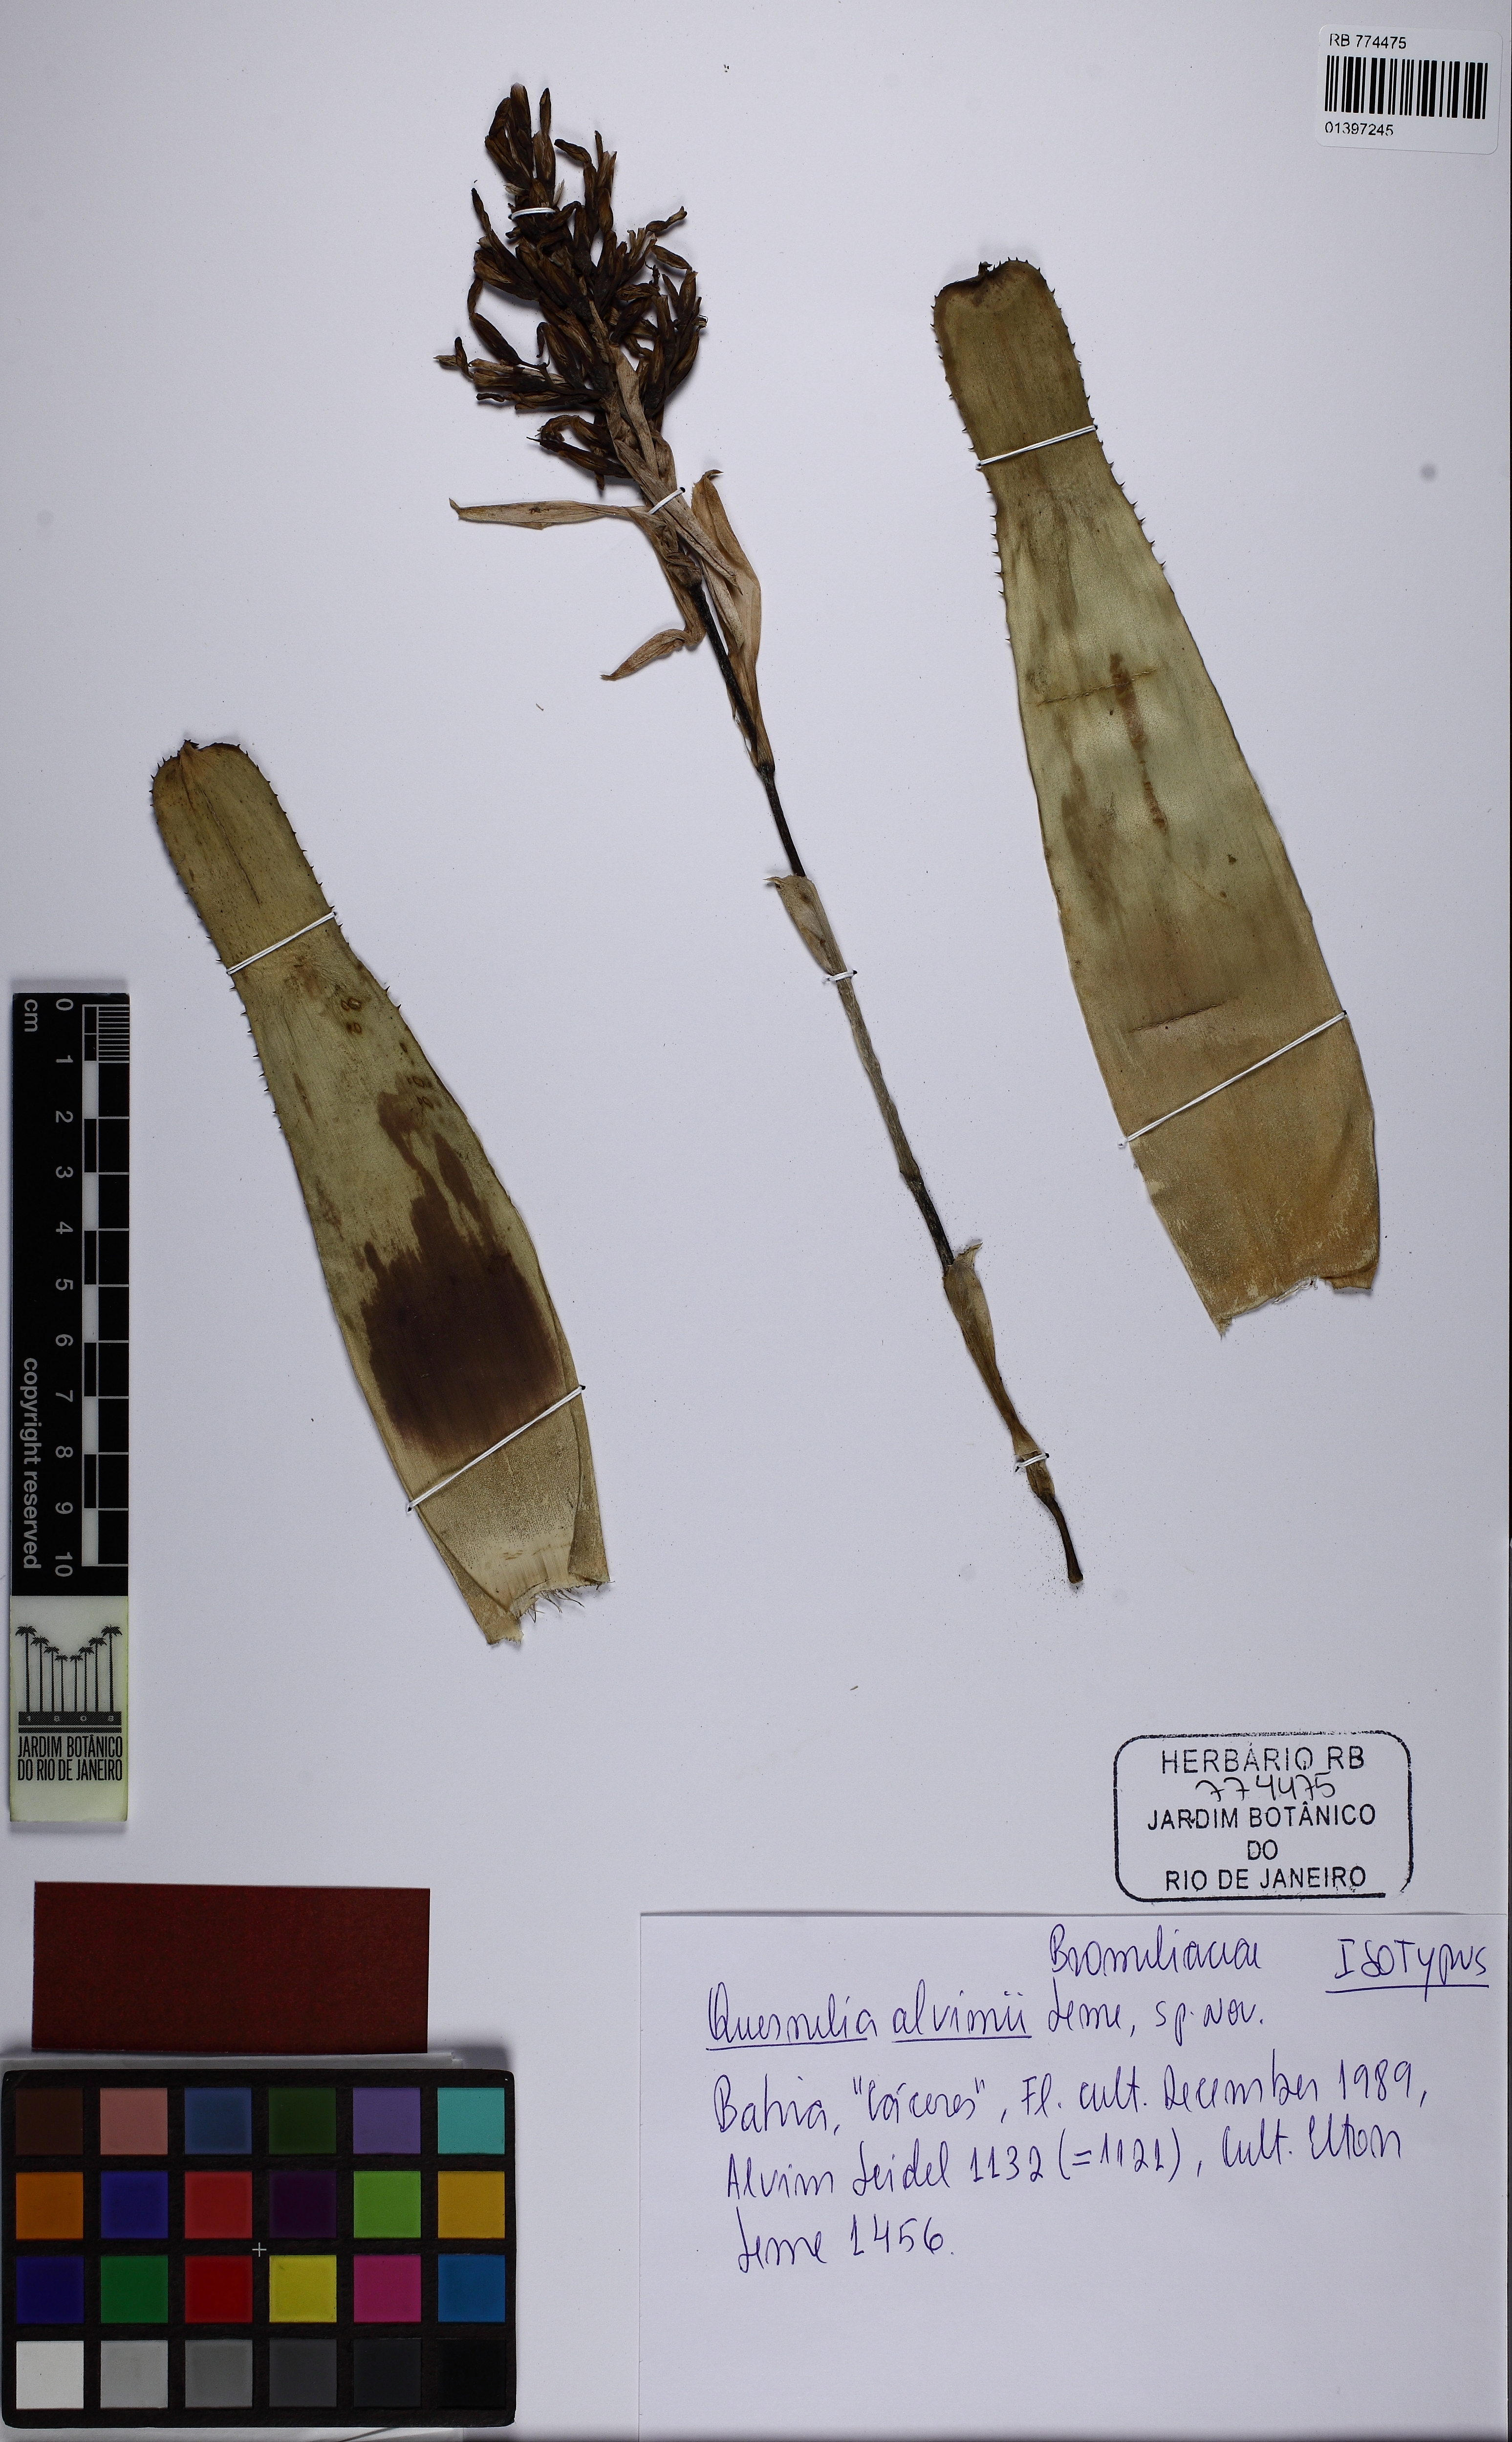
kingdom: Plantae
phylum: Tracheophyta
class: Liliopsida
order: Poales
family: Bromeliaceae
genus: Quesnelia
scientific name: Quesnelia alvimii
